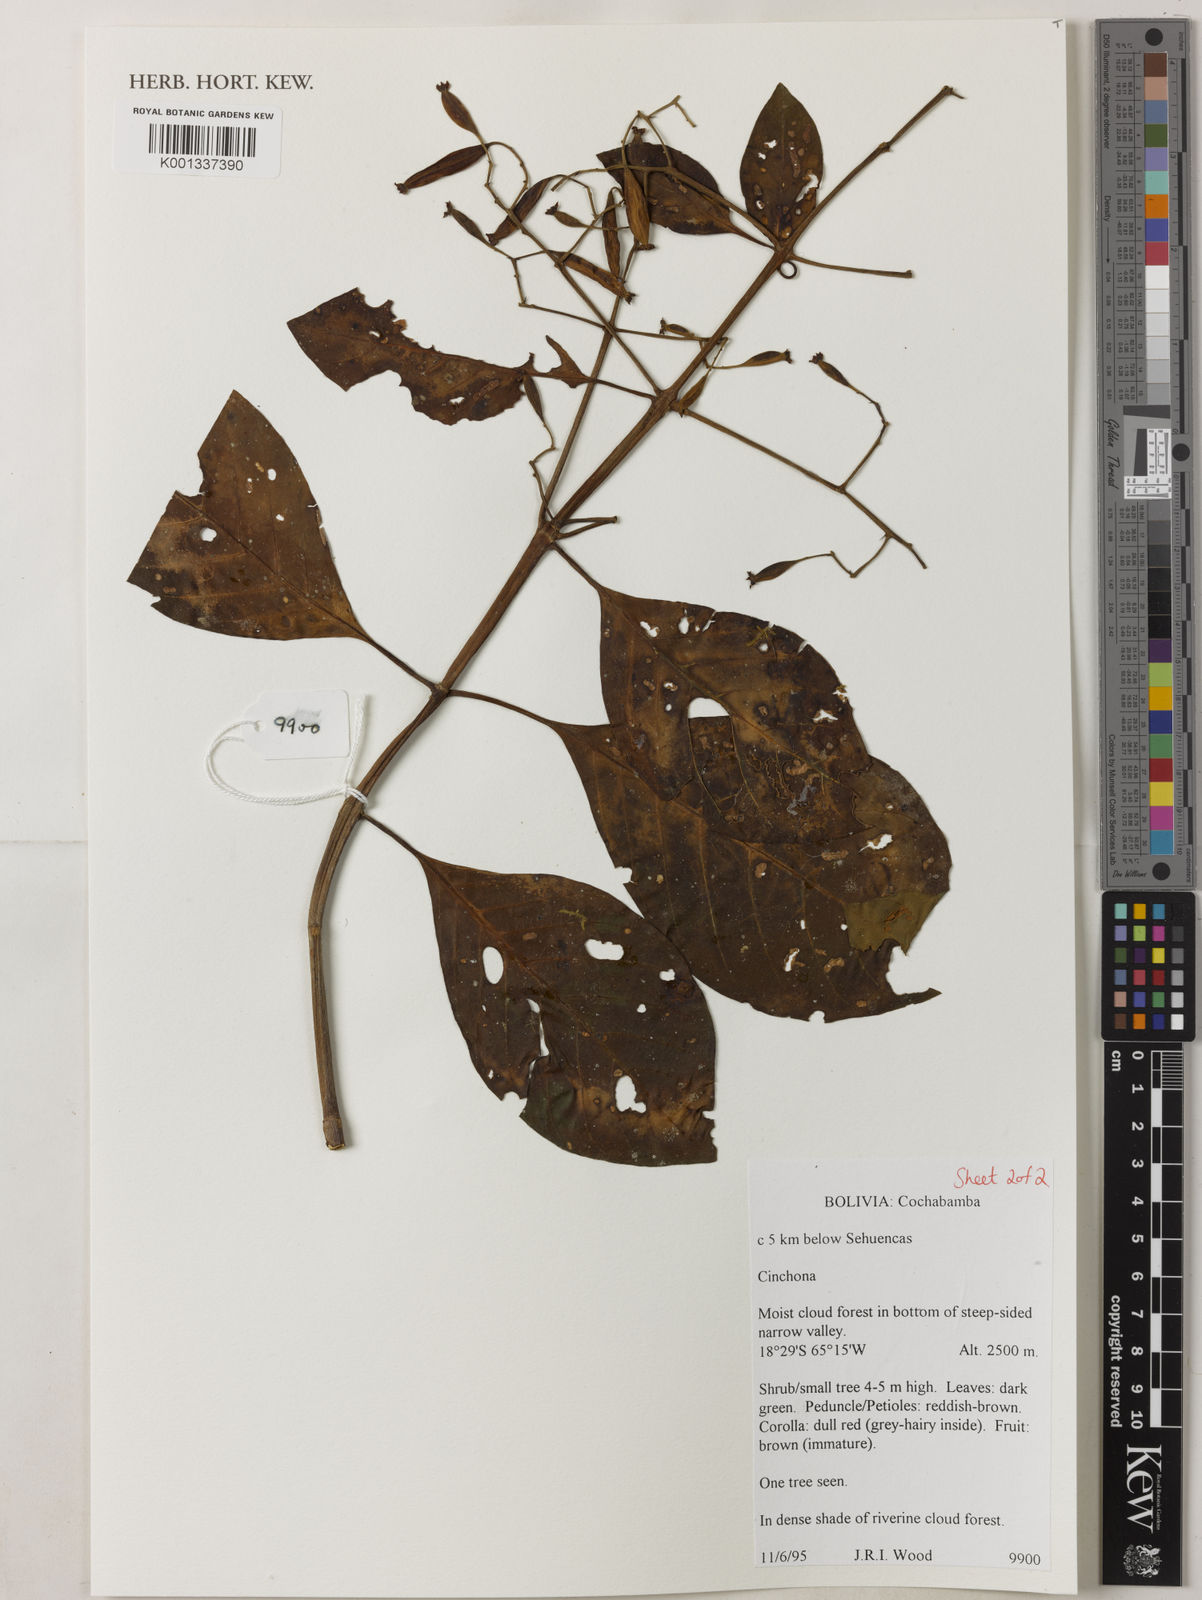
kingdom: Plantae
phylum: Tracheophyta
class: Magnoliopsida
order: Gentianales
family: Rubiaceae
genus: Cinchona
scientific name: Cinchona
